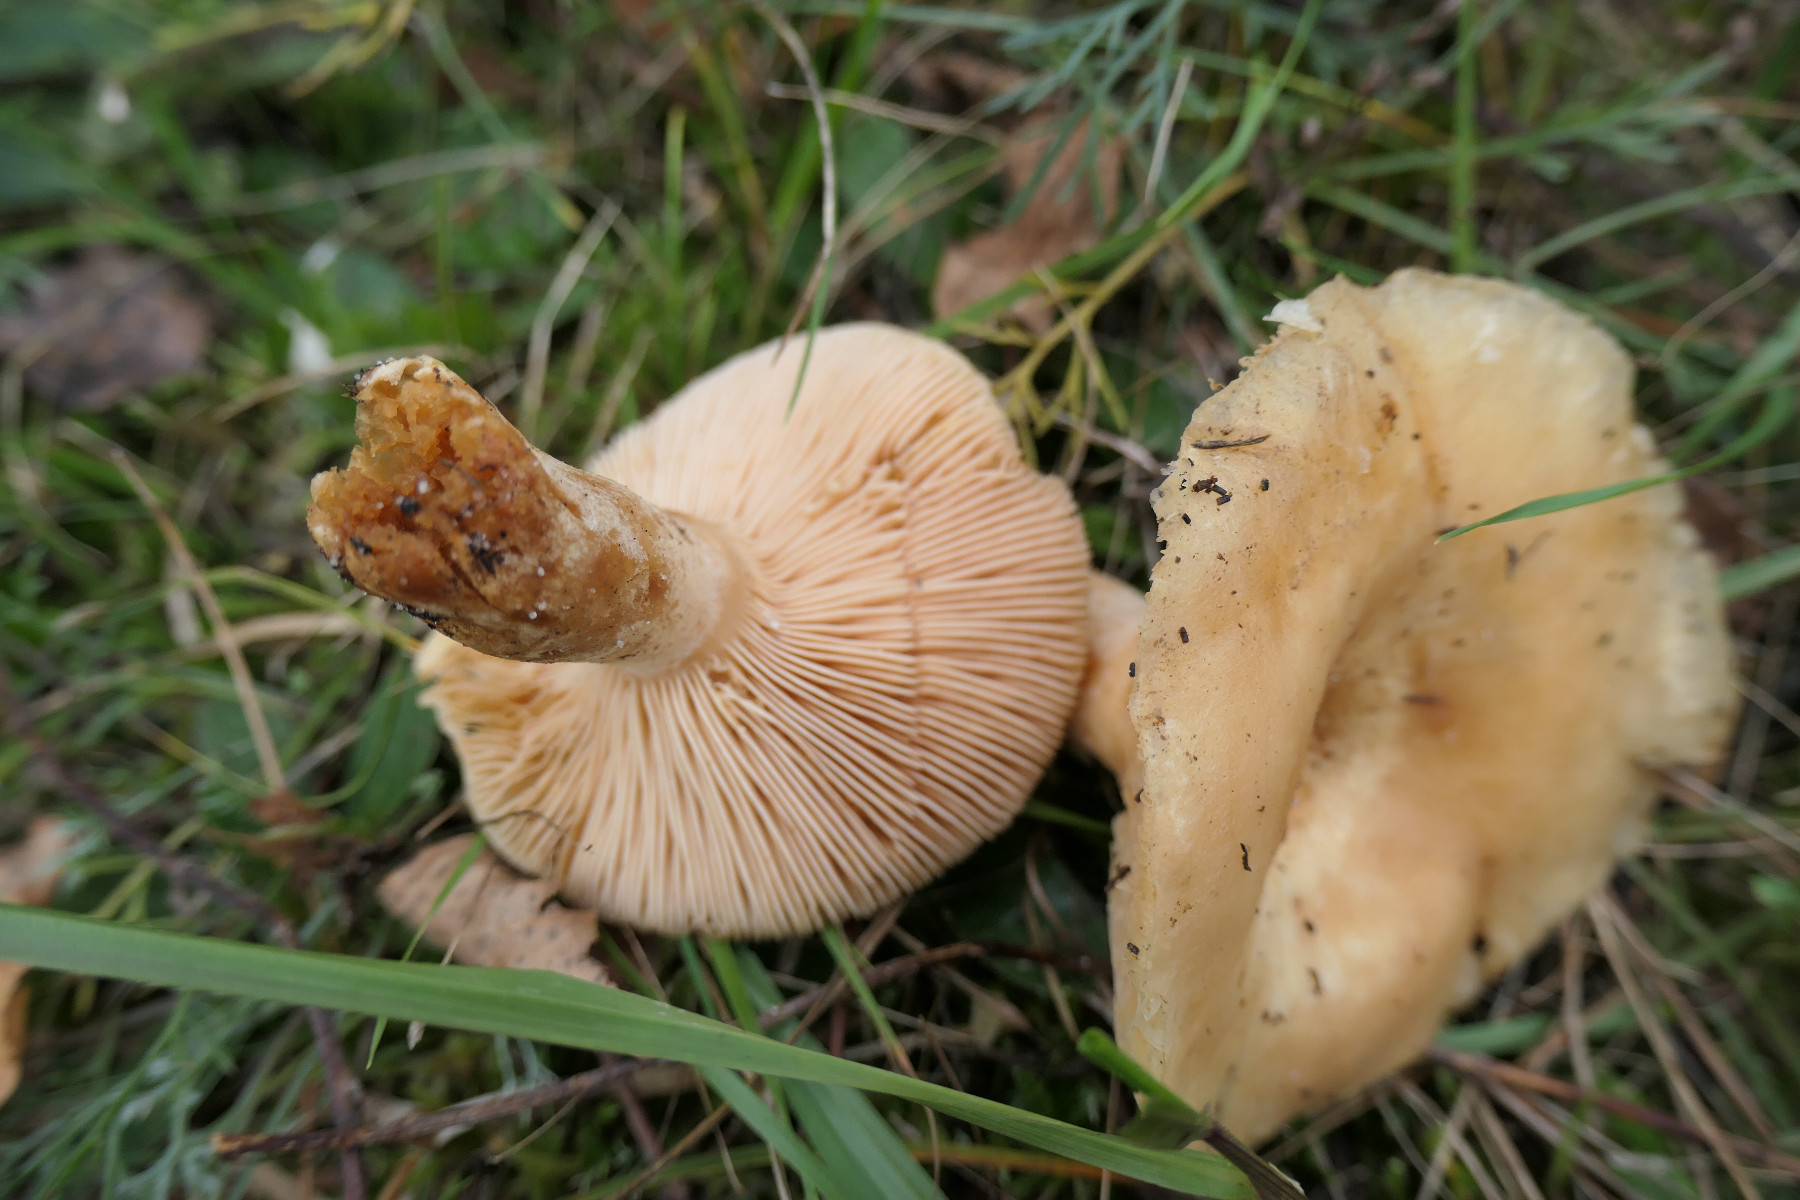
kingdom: Fungi
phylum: Basidiomycota
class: Agaricomycetes
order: Russulales
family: Russulaceae
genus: Lactarius
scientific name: Lactarius pubescens
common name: dunet mælkehat
